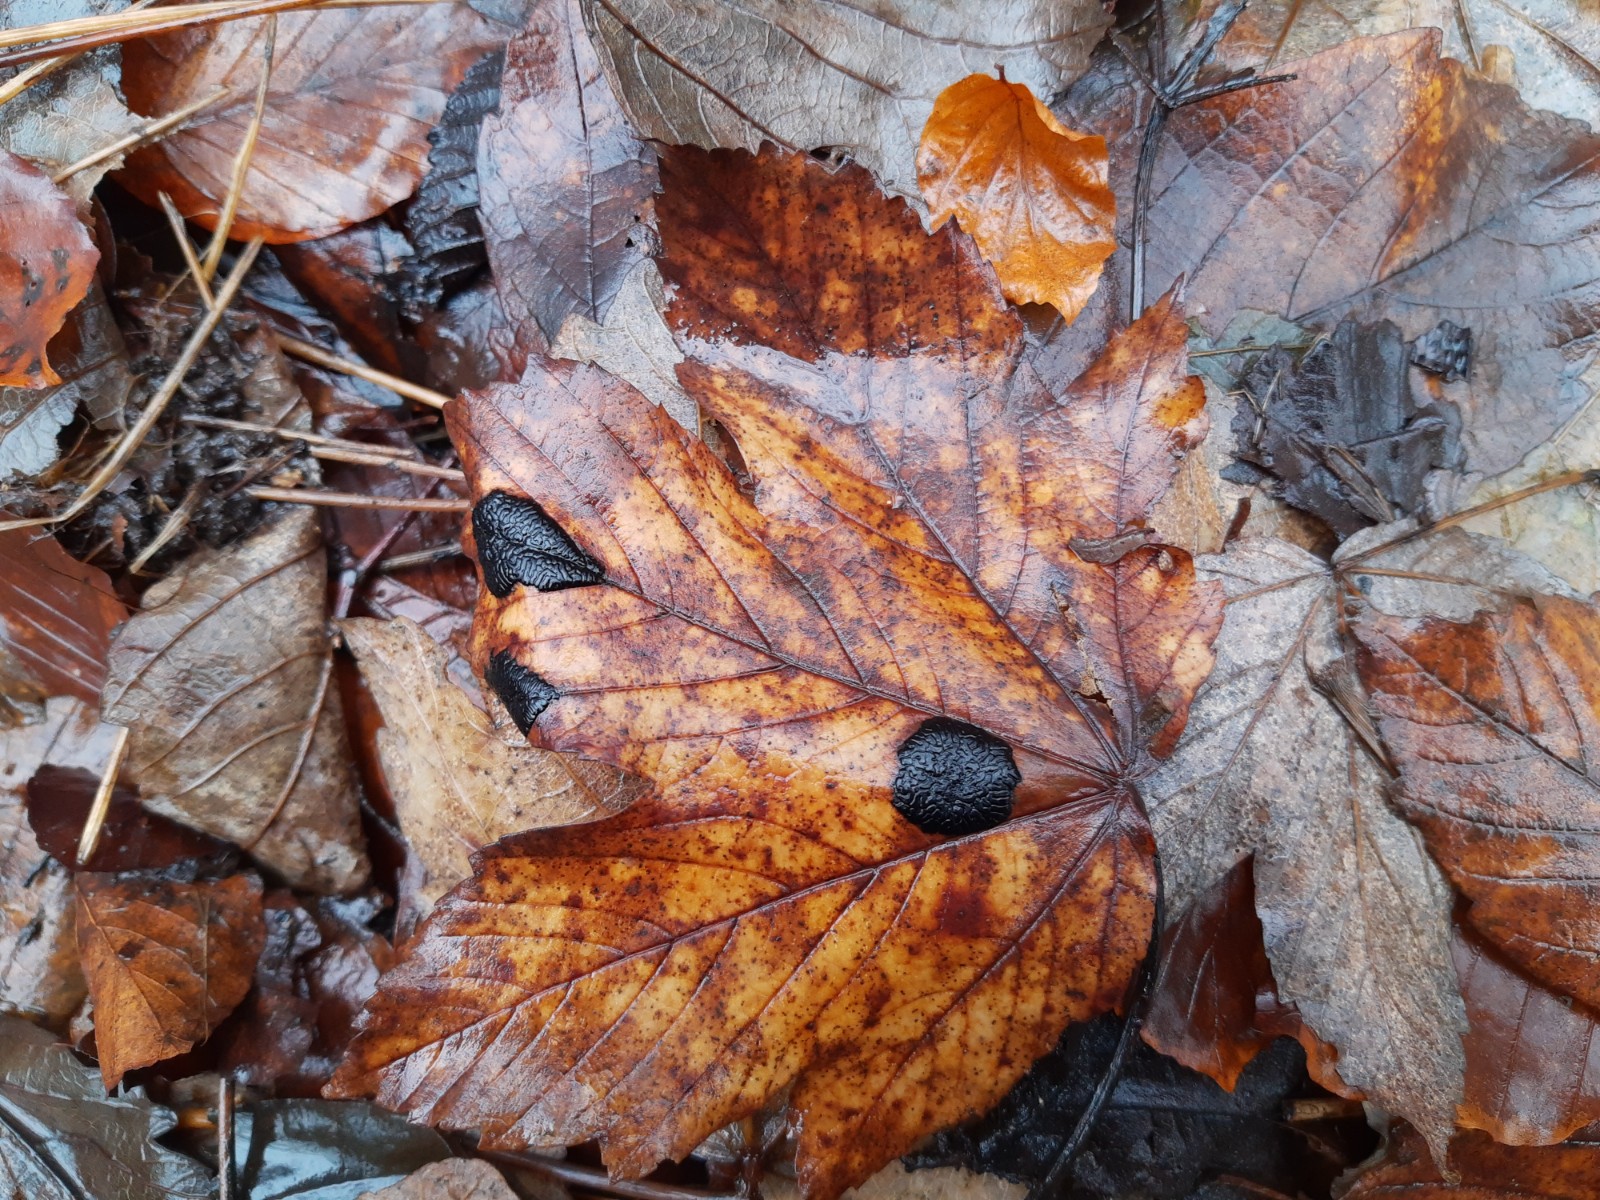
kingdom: Fungi
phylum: Ascomycota
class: Leotiomycetes
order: Rhytismatales
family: Rhytismataceae
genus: Rhytisma
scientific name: Rhytisma acerinum
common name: ahorn-rynkeplet
